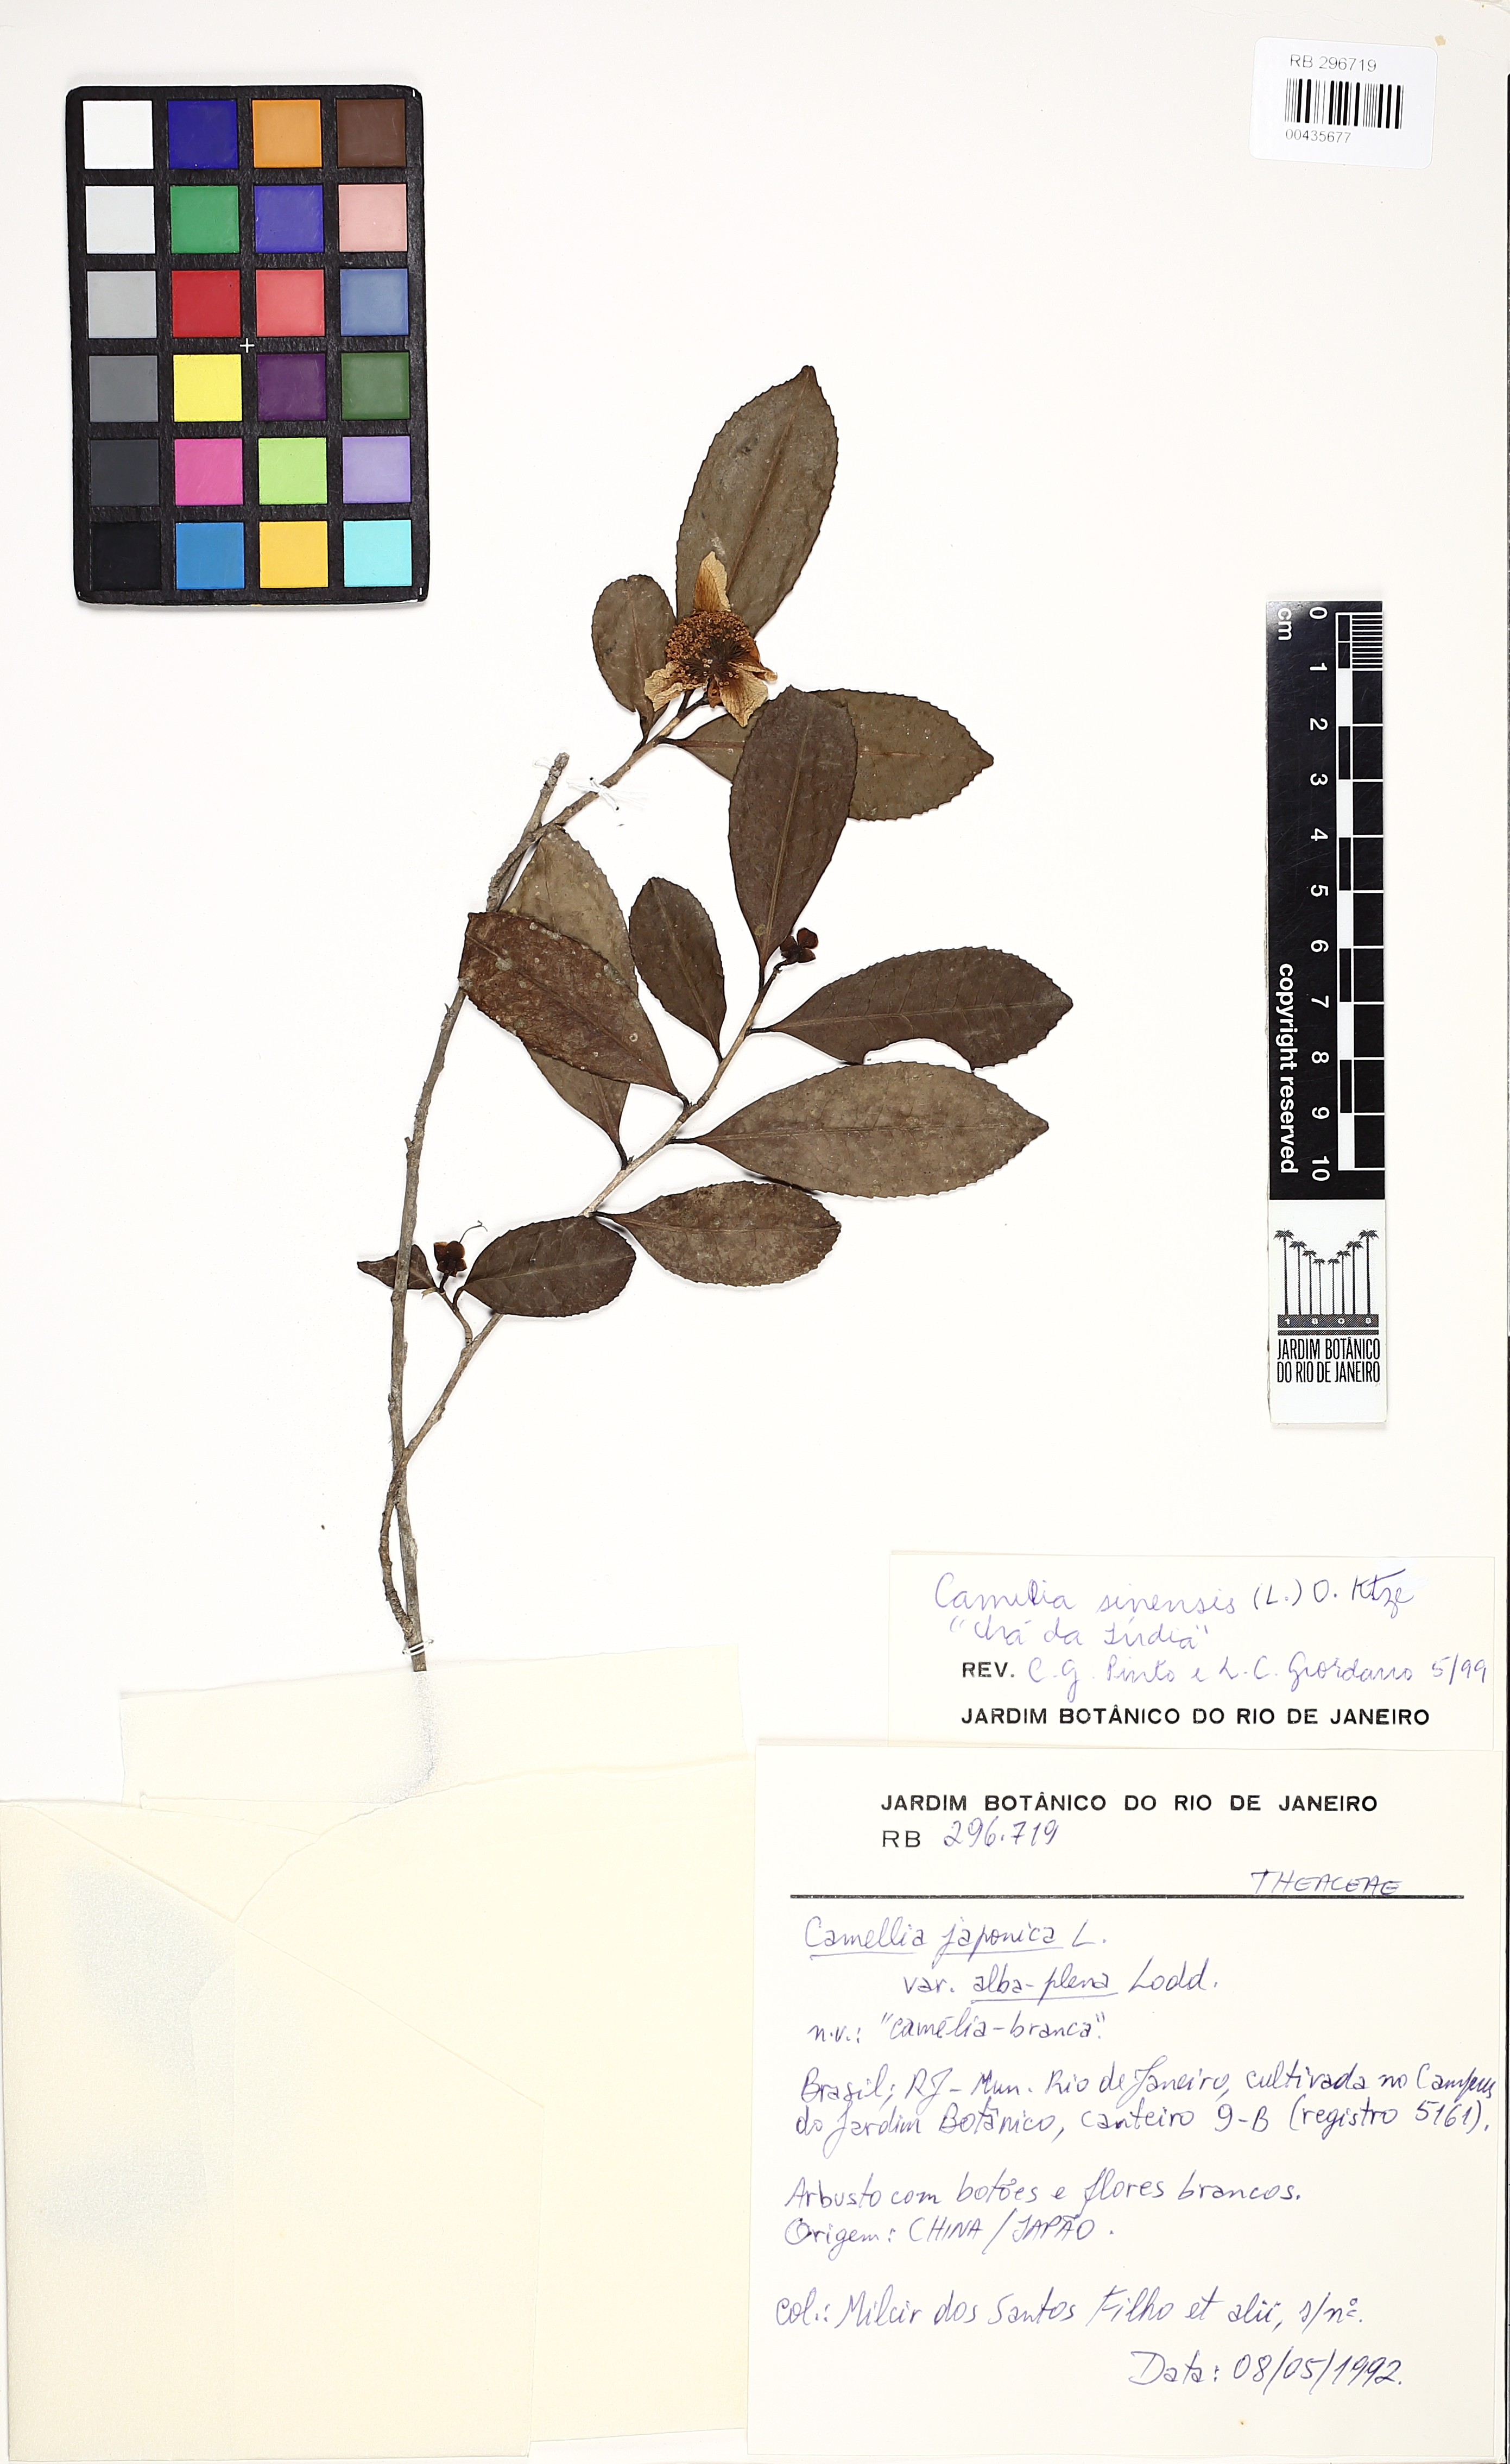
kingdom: Plantae
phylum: Tracheophyta
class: Magnoliopsida
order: Ericales
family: Theaceae
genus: Camellia
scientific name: Camellia sinensis
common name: Tea
